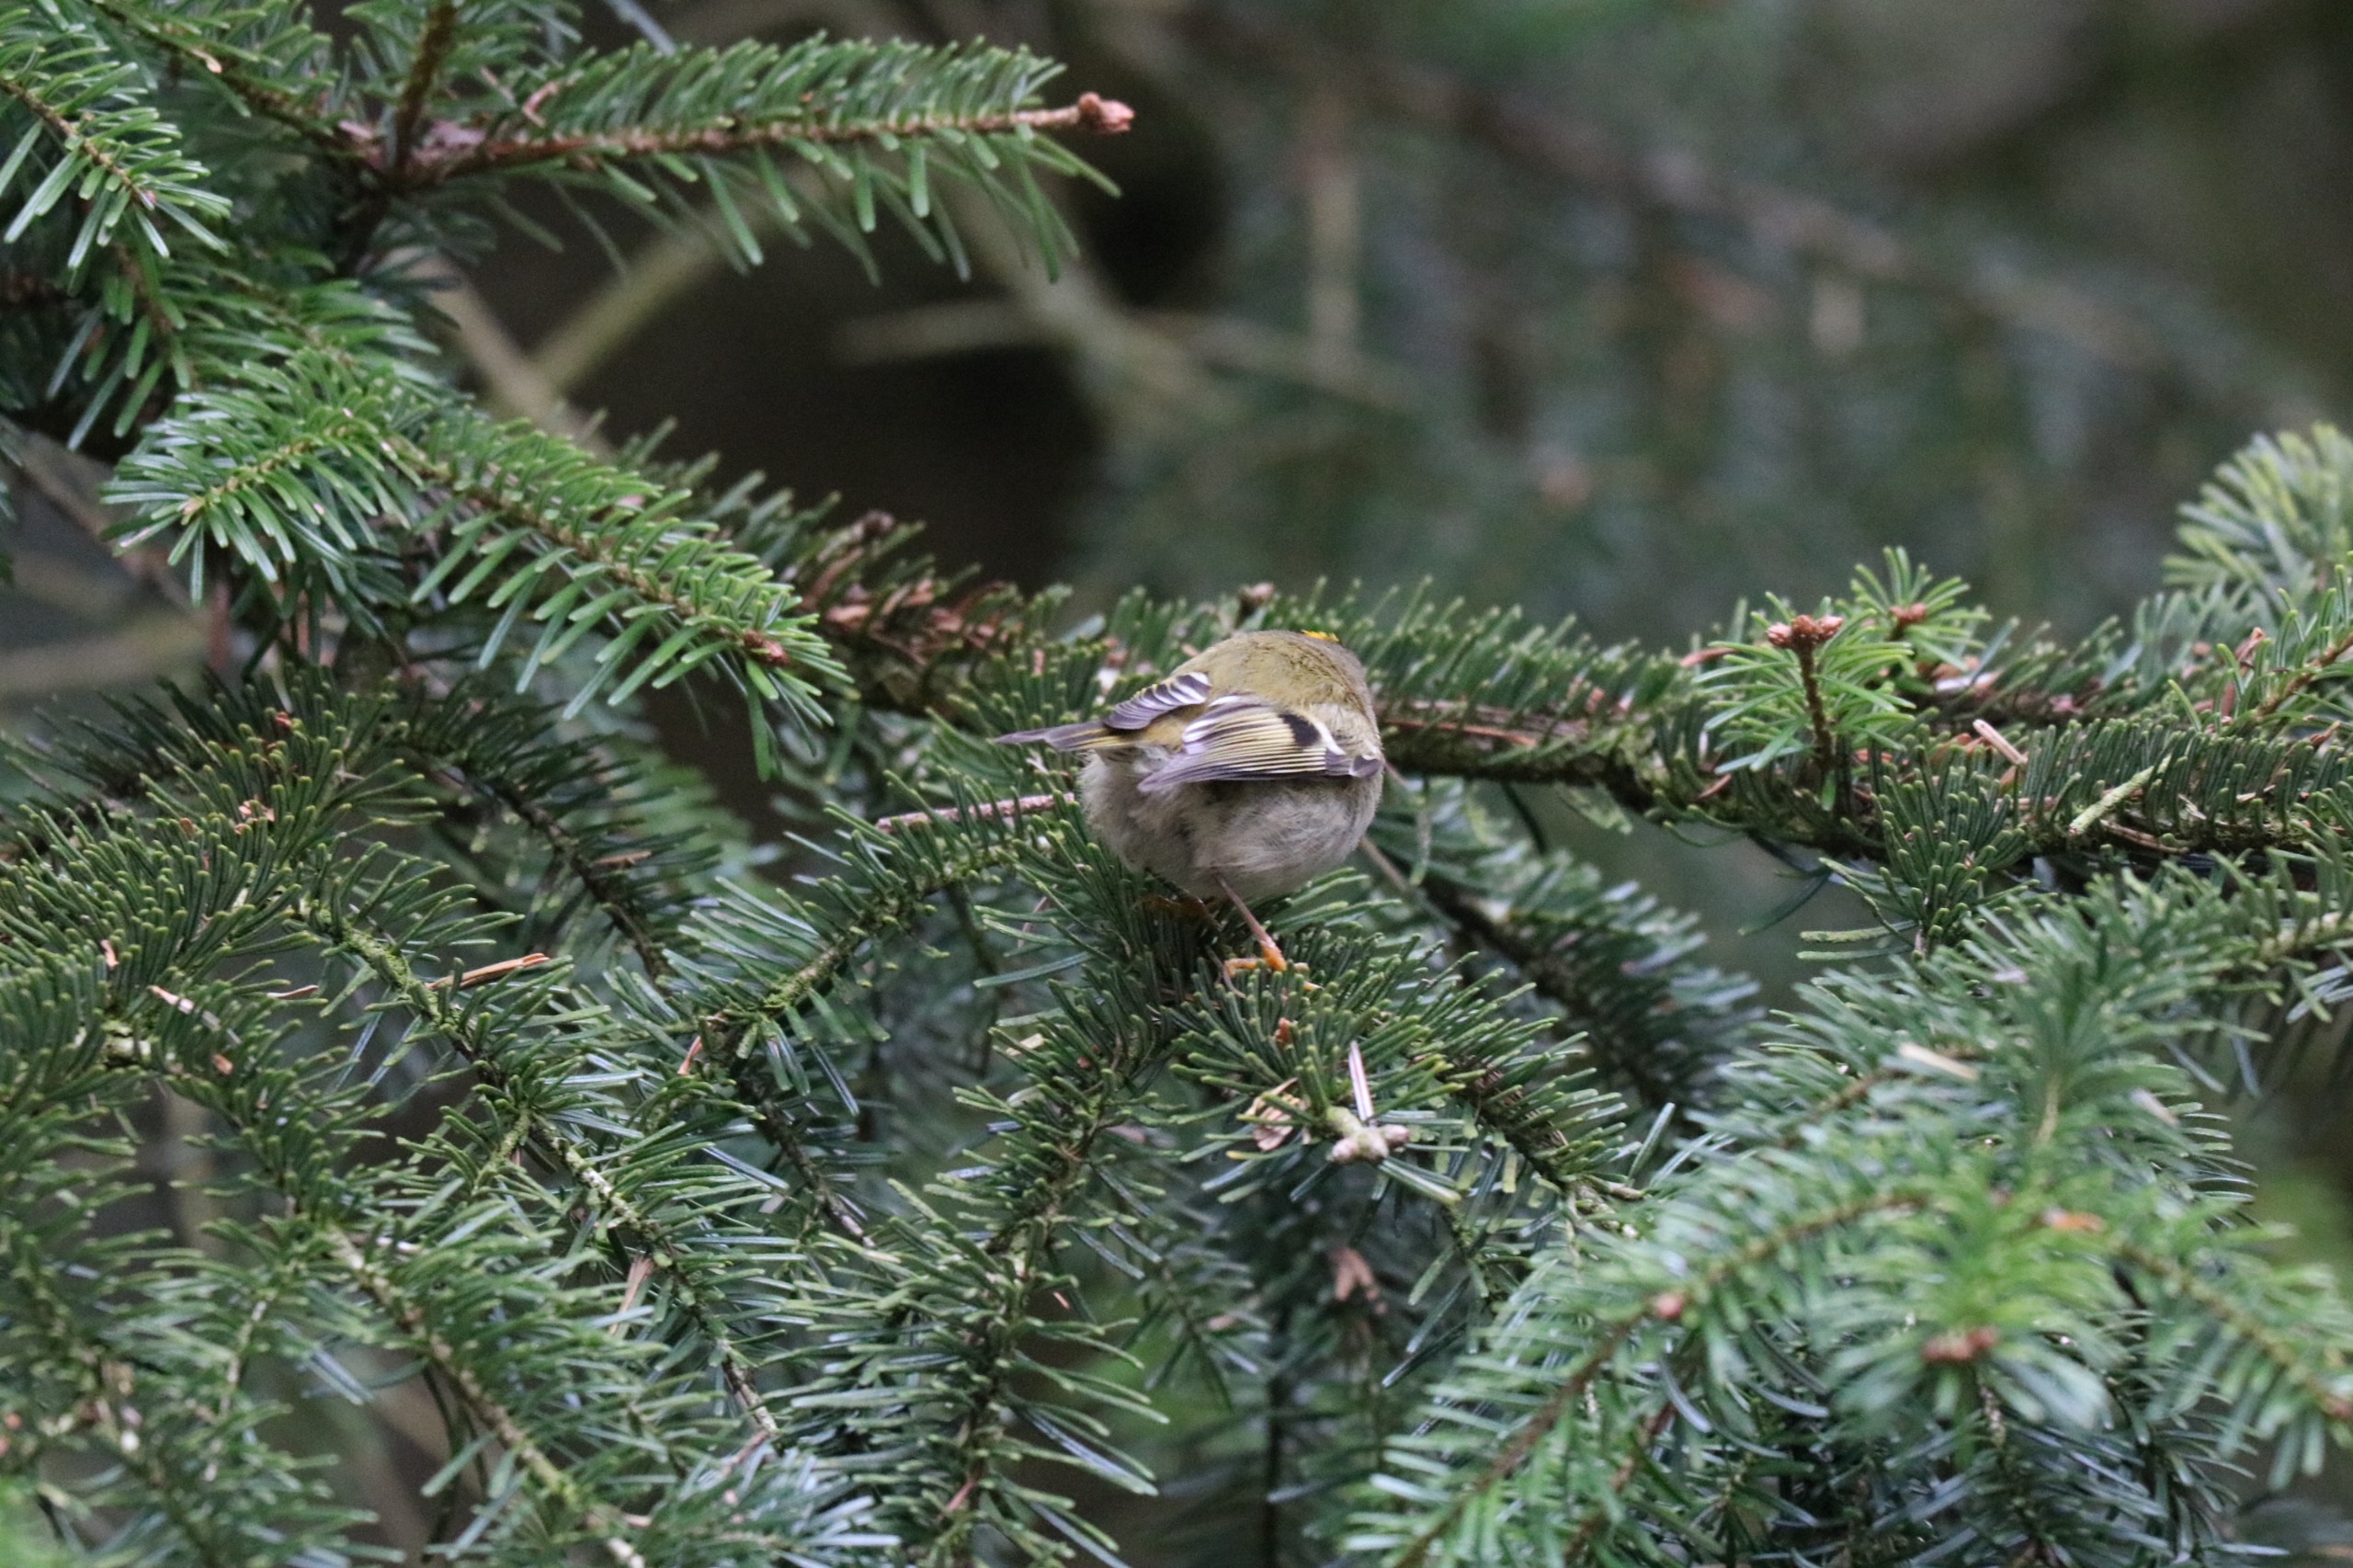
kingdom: Animalia
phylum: Chordata
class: Aves
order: Passeriformes
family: Regulidae
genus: Regulus
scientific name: Regulus regulus
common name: Fuglekonge
